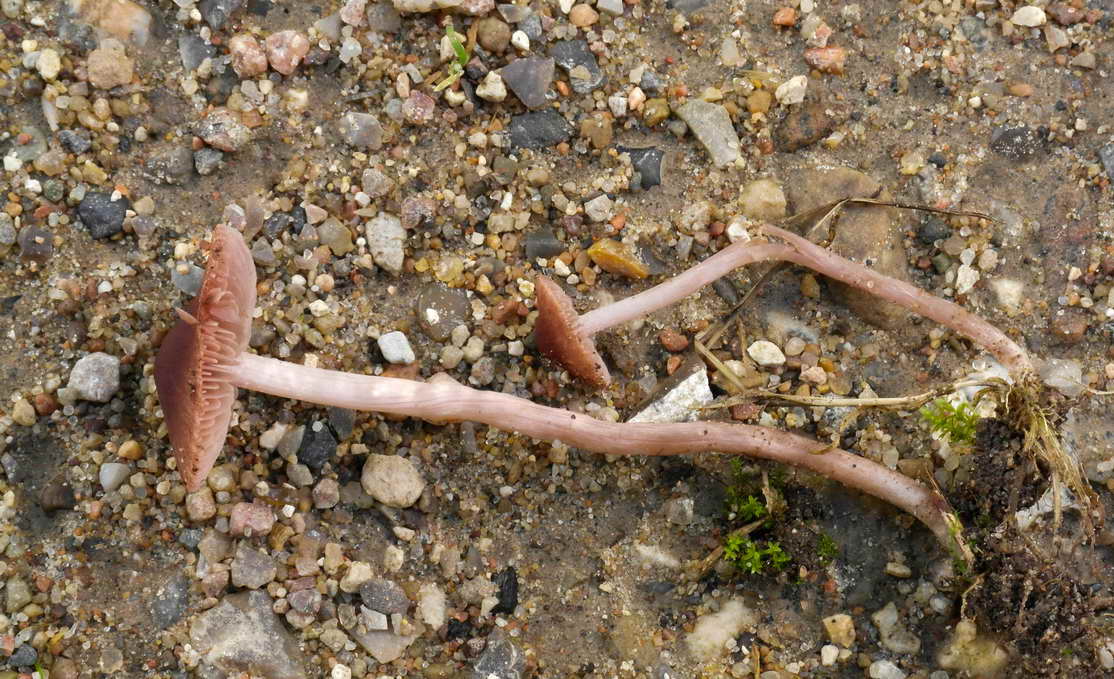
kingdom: Fungi
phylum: Basidiomycota
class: Agaricomycetes
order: Agaricales
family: Psathyrellaceae
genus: Psathyrella
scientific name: Psathyrella bipellis
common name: vinrød mørkhat
